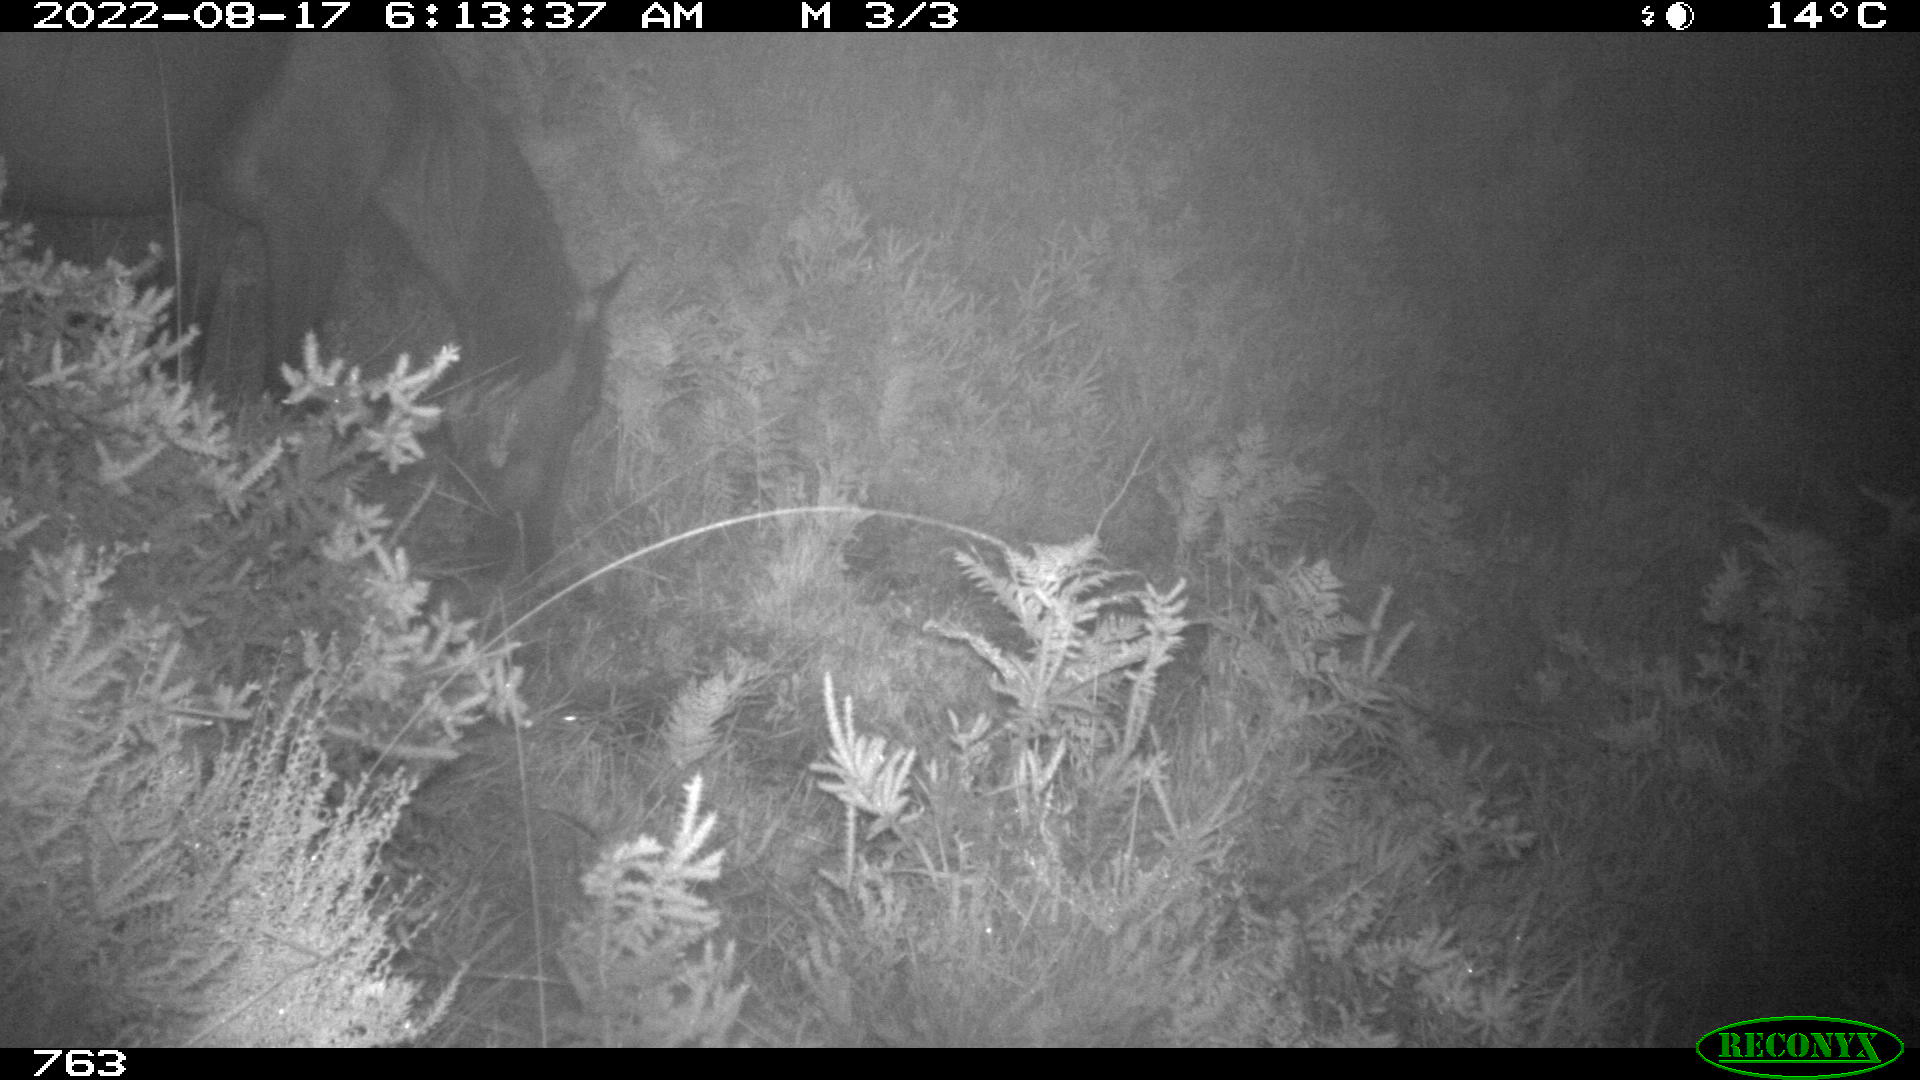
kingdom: Animalia
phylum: Chordata
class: Mammalia
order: Perissodactyla
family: Equidae
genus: Equus
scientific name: Equus caballus
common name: Horse
